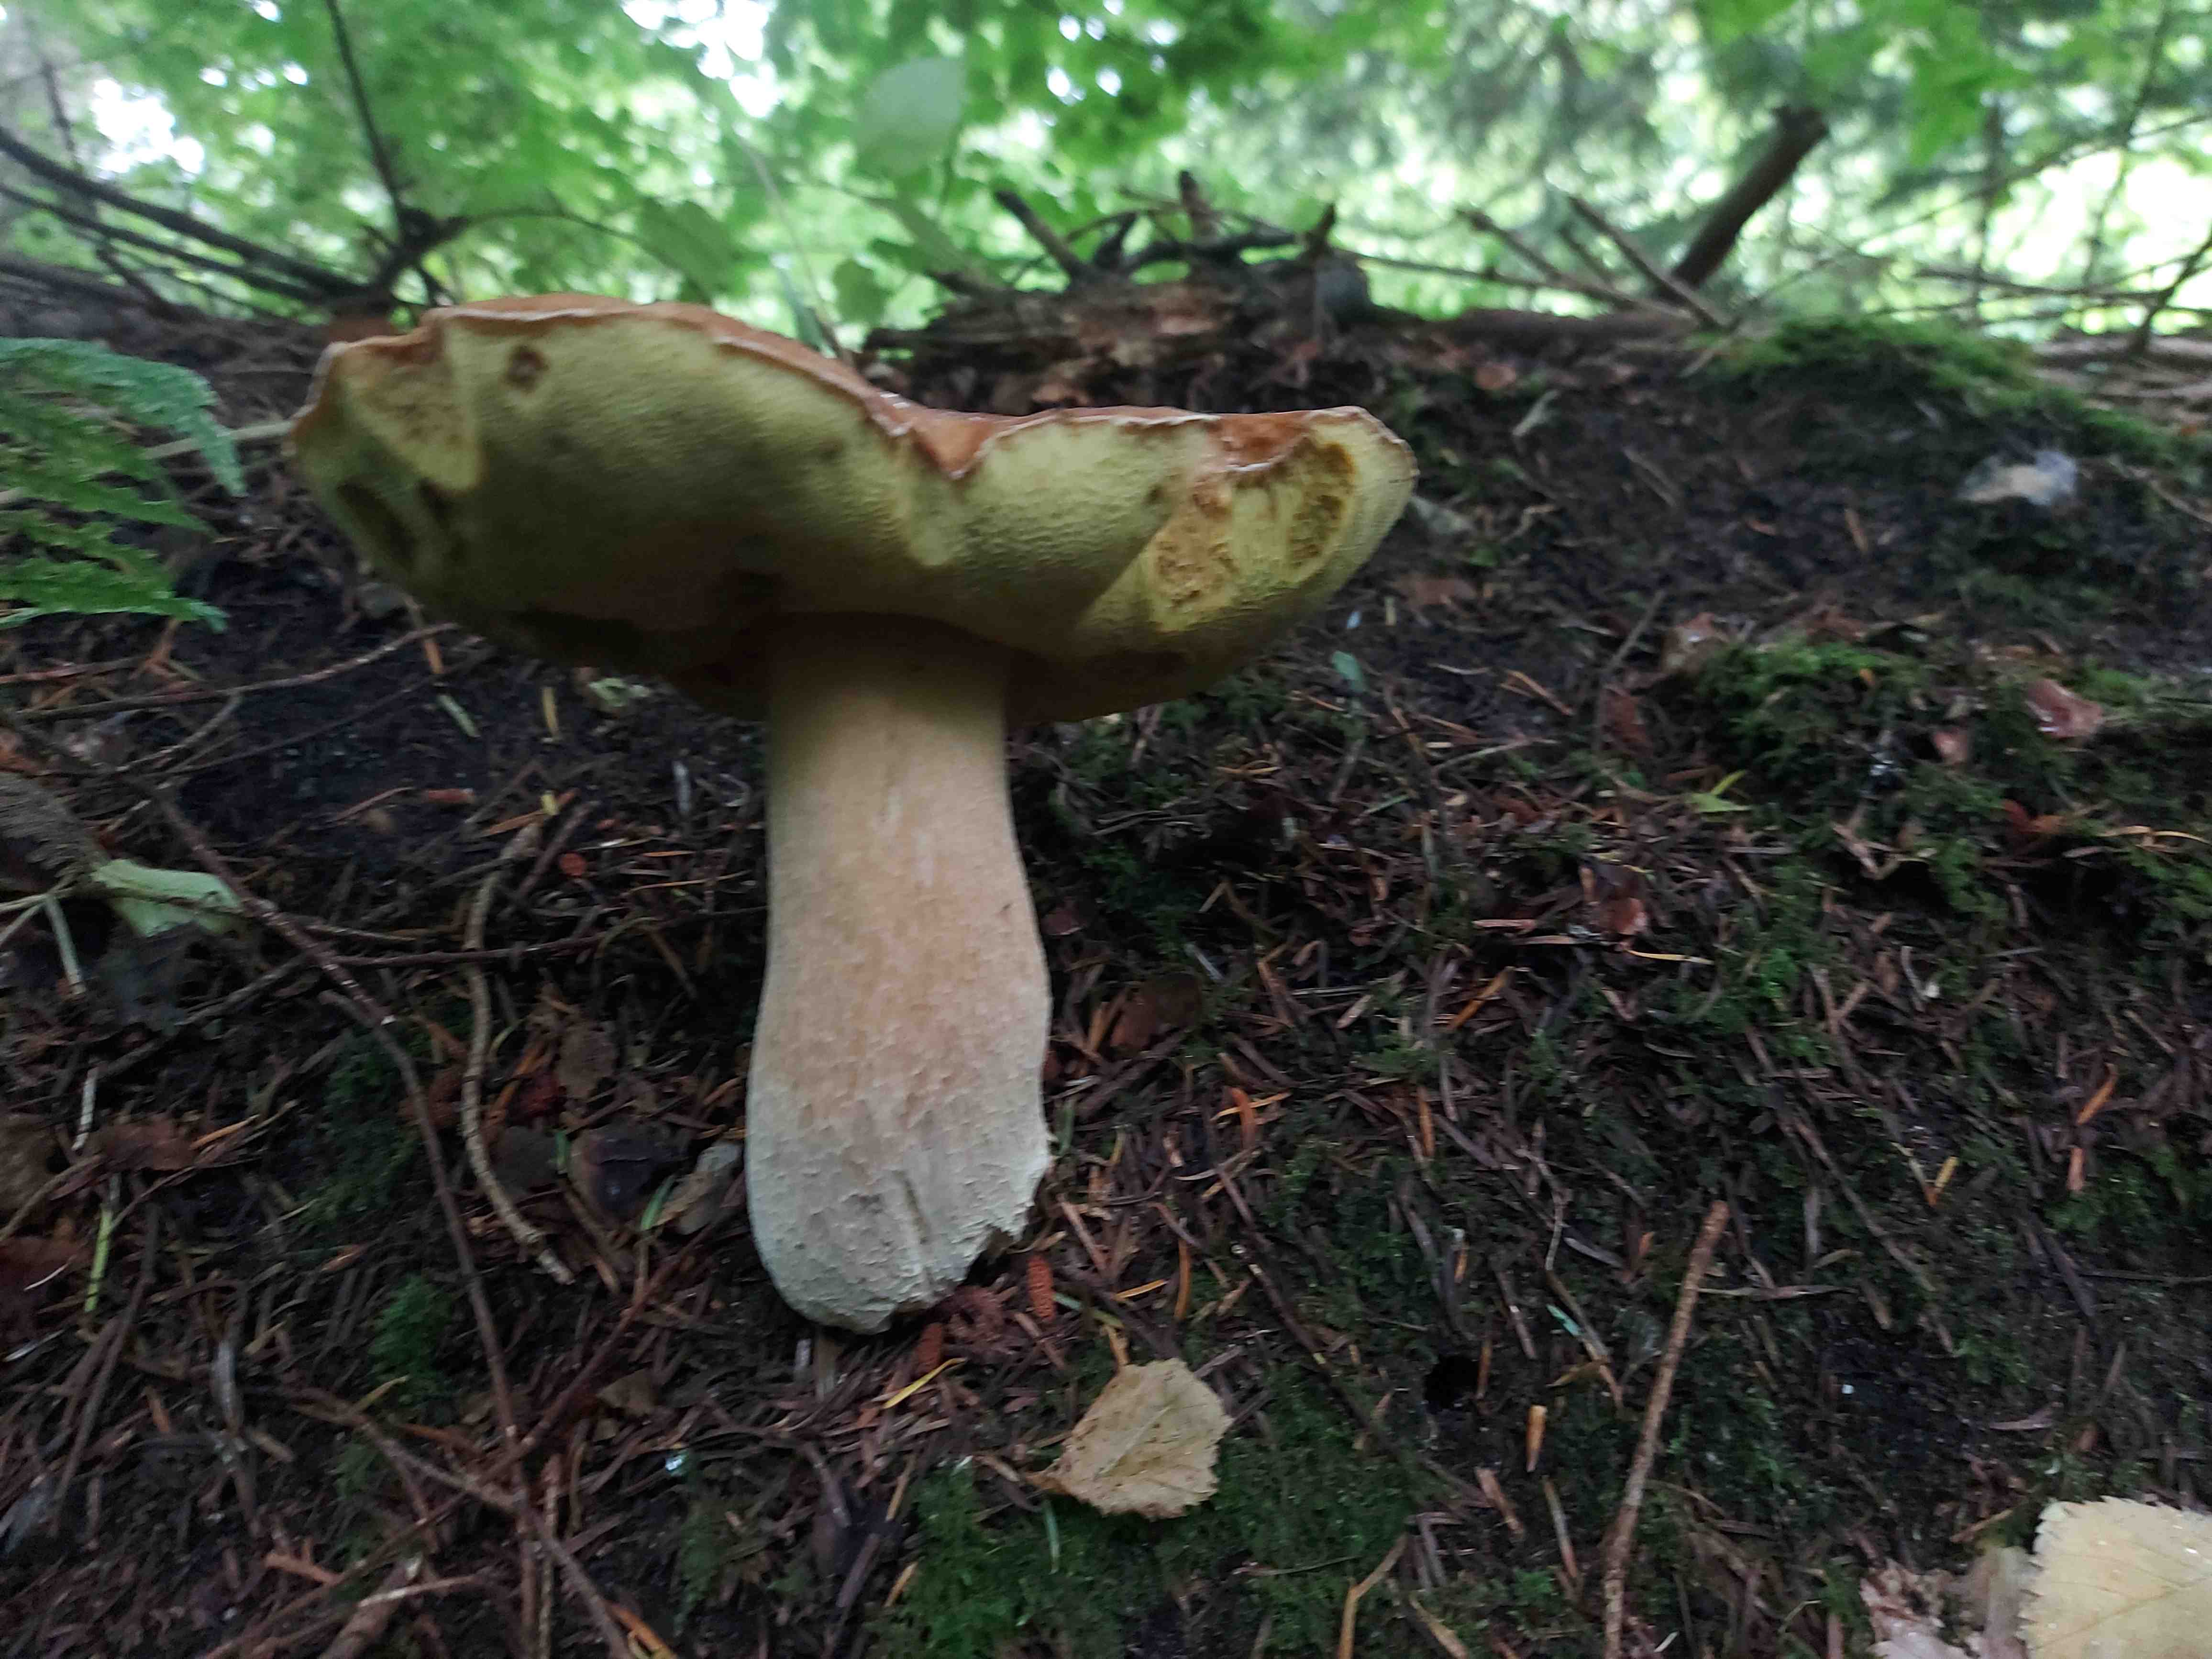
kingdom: Fungi
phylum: Basidiomycota
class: Agaricomycetes
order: Boletales
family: Boletaceae
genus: Boletus
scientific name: Boletus edulis
